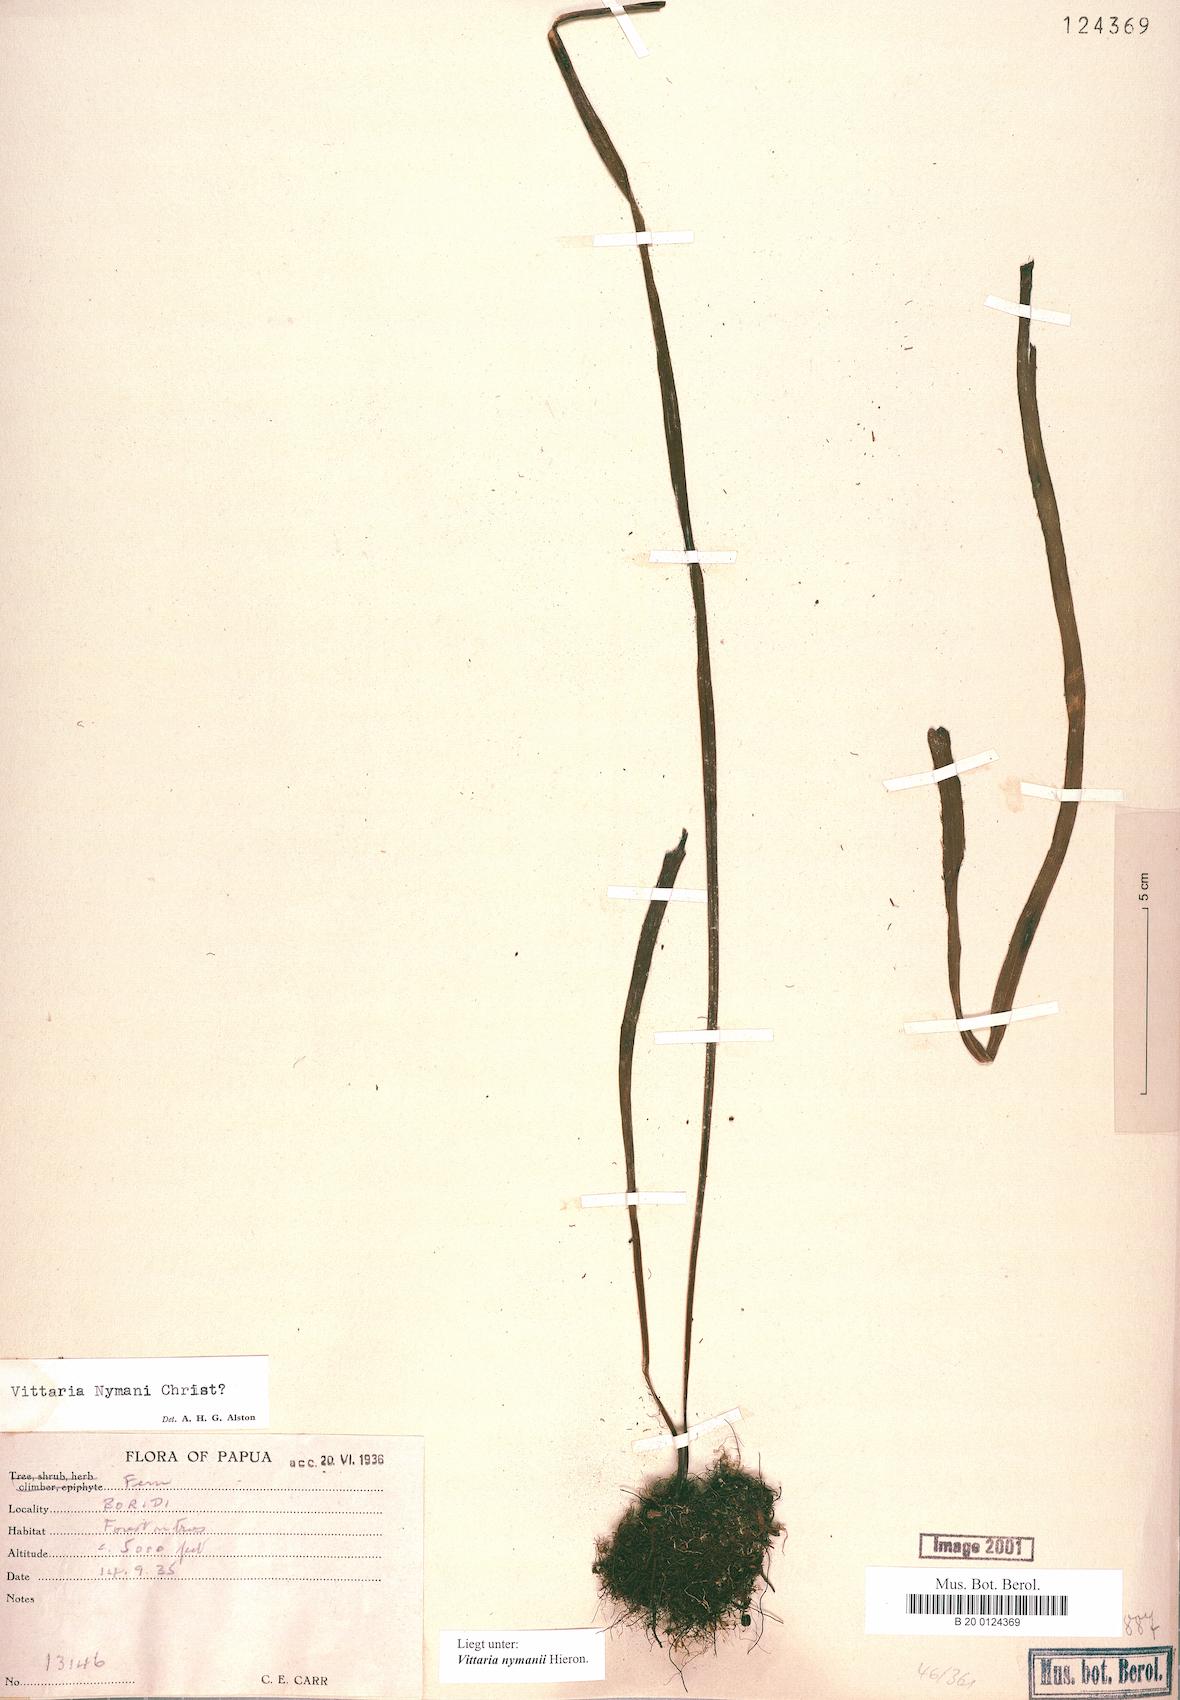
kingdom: Plantae
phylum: Tracheophyta
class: Polypodiopsida
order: Polypodiales
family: Pteridaceae
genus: Haplopteris
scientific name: Haplopteris elongata
